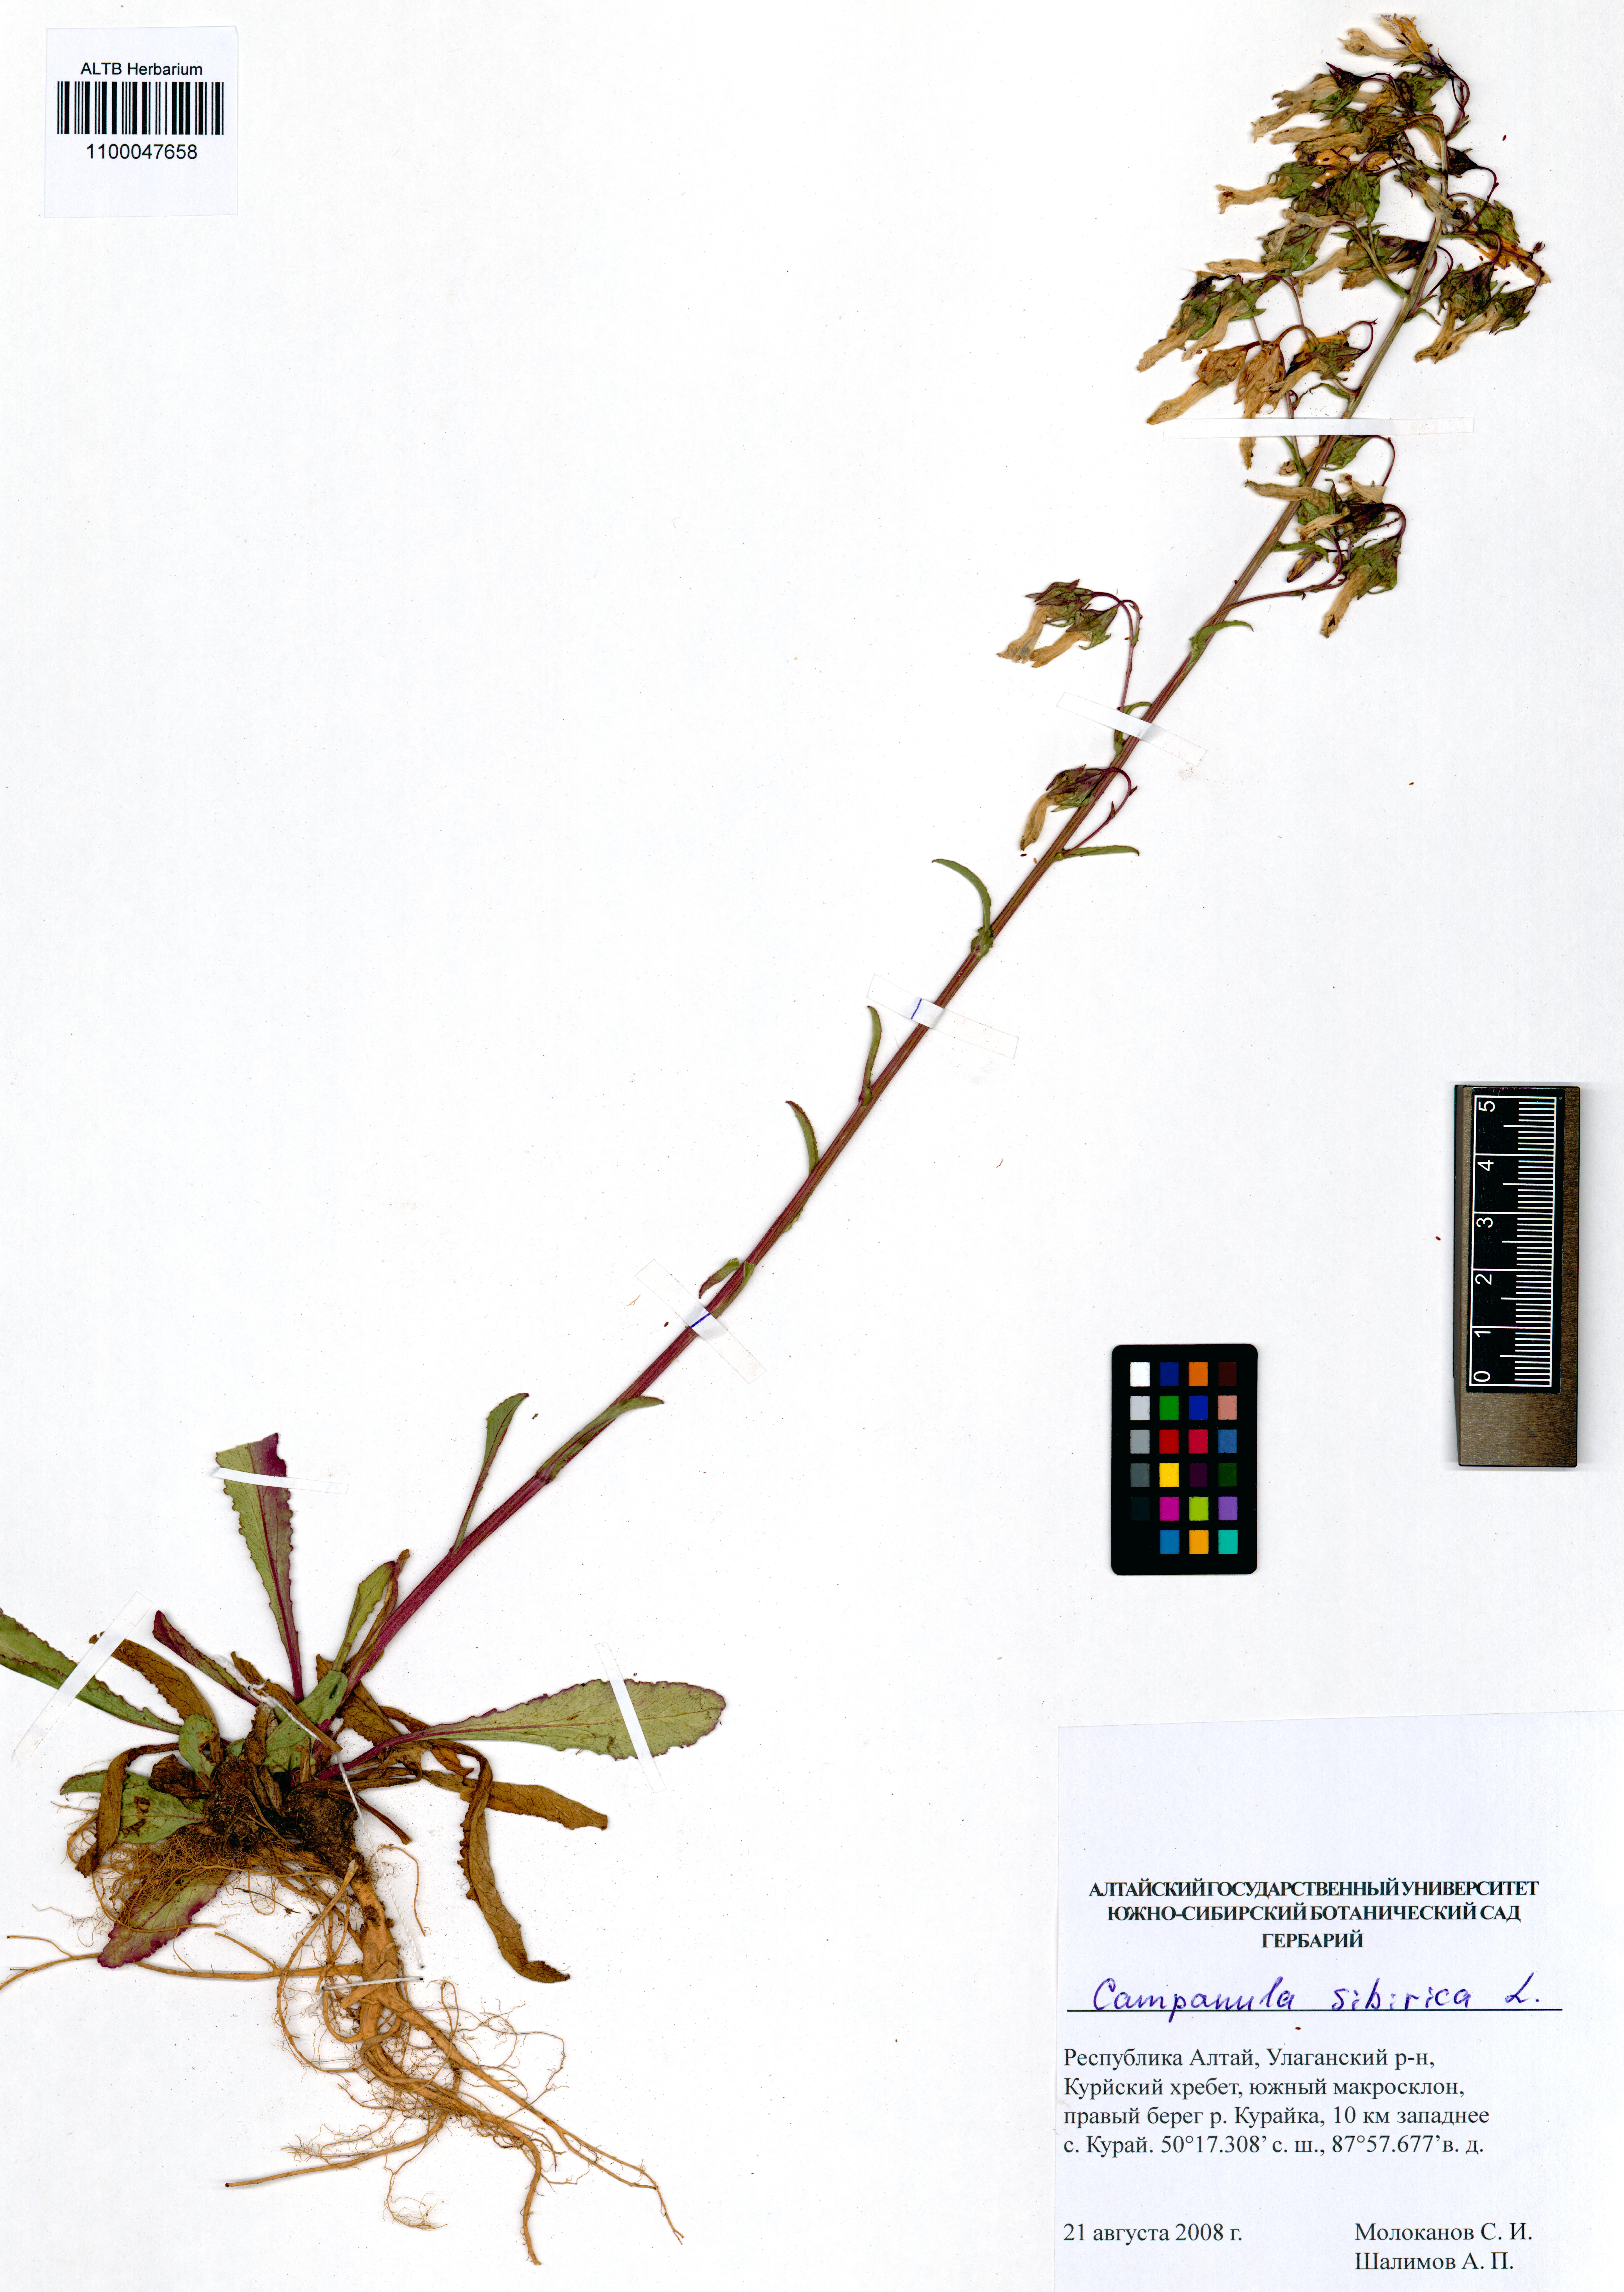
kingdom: Plantae
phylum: Tracheophyta
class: Magnoliopsida
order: Asterales
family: Campanulaceae
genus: Campanula
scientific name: Campanula sibirica
